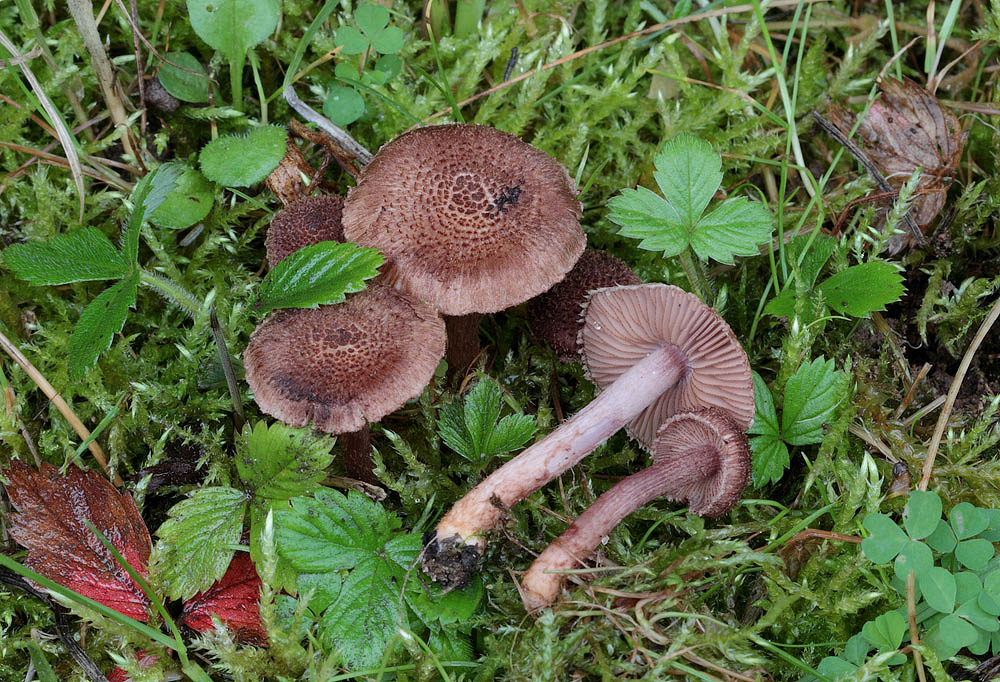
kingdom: Fungi
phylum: Basidiomycota
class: Agaricomycetes
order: Agaricales
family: Inocybaceae
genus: Inocybe
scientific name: Inocybe cincinnata
